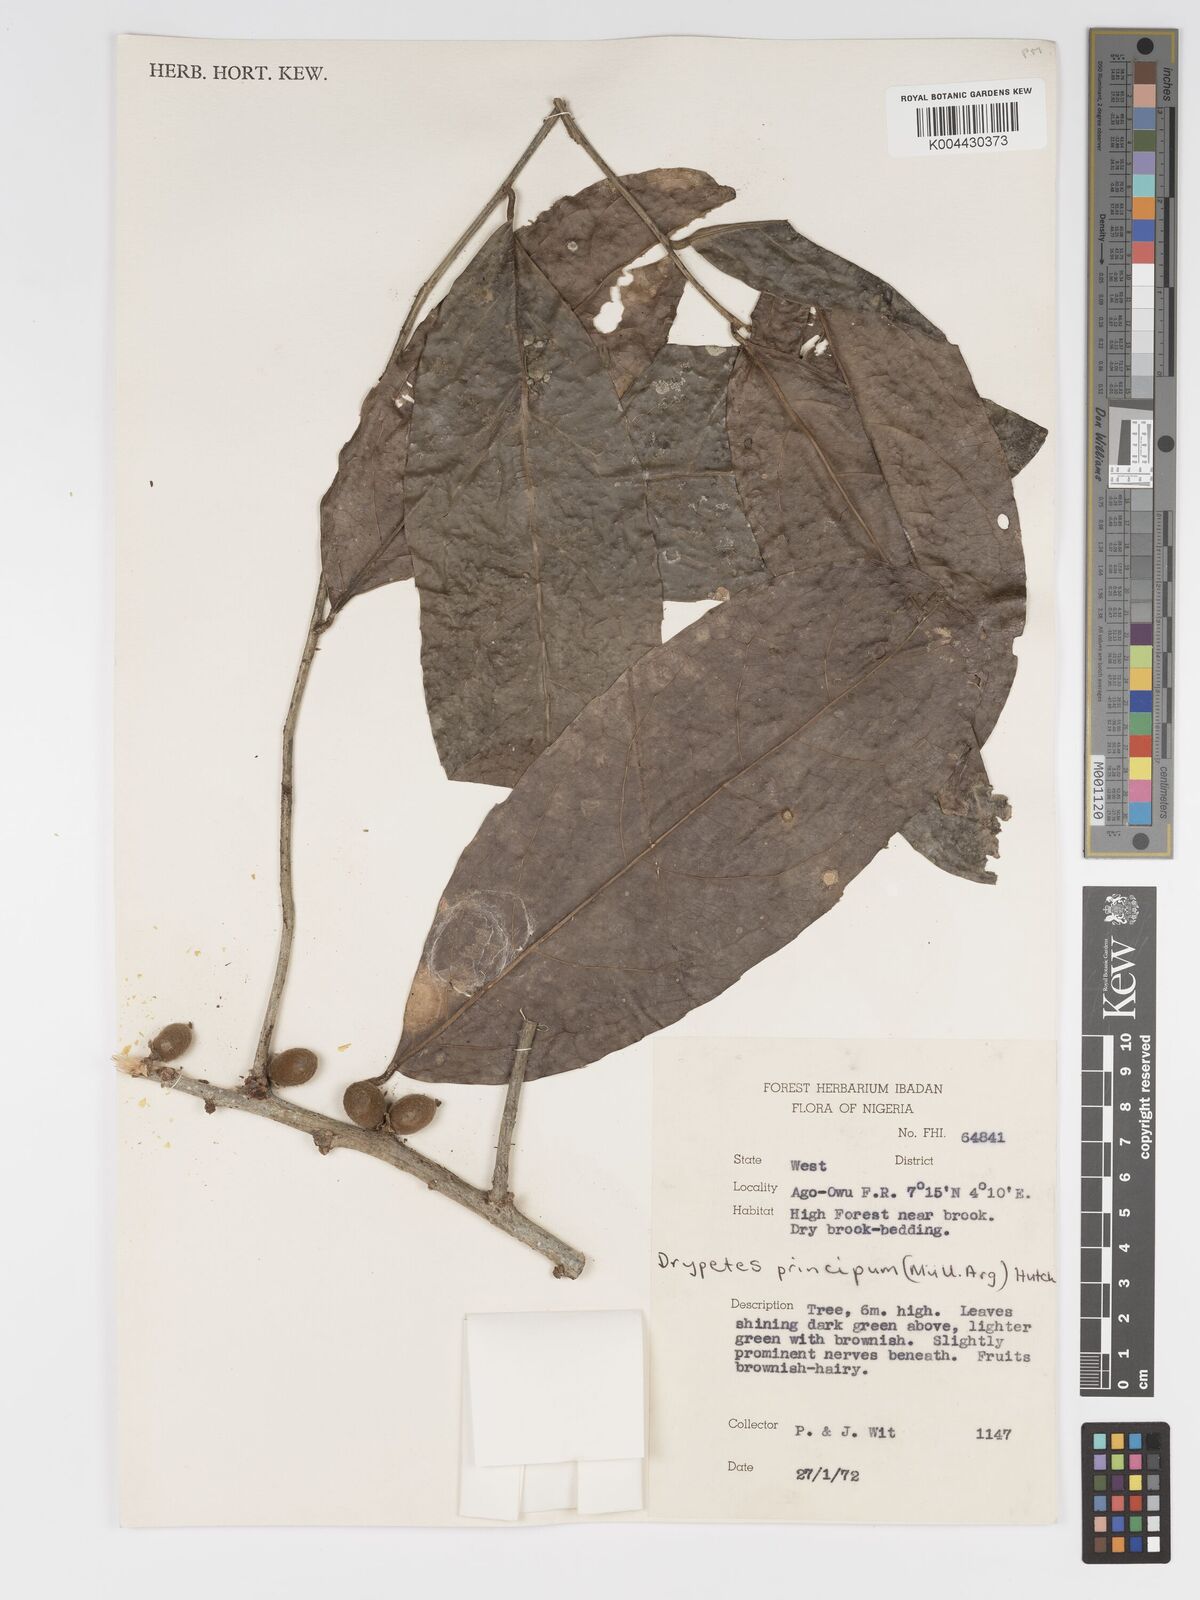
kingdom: Plantae
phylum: Tracheophyta
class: Magnoliopsida
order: Malpighiales
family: Putranjivaceae
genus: Drypetes
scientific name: Drypetes principum
